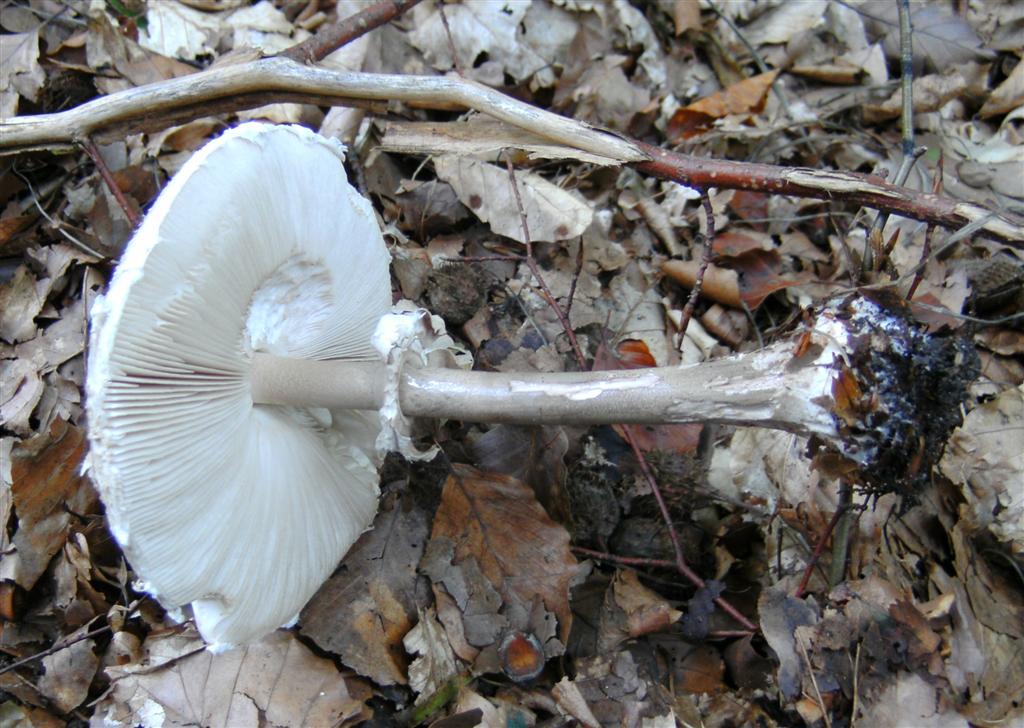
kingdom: Fungi
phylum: Basidiomycota
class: Agaricomycetes
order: Agaricales
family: Agaricaceae
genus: Macrolepiota
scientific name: Macrolepiota mastoidea
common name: puklet kæmpeparasolhat
